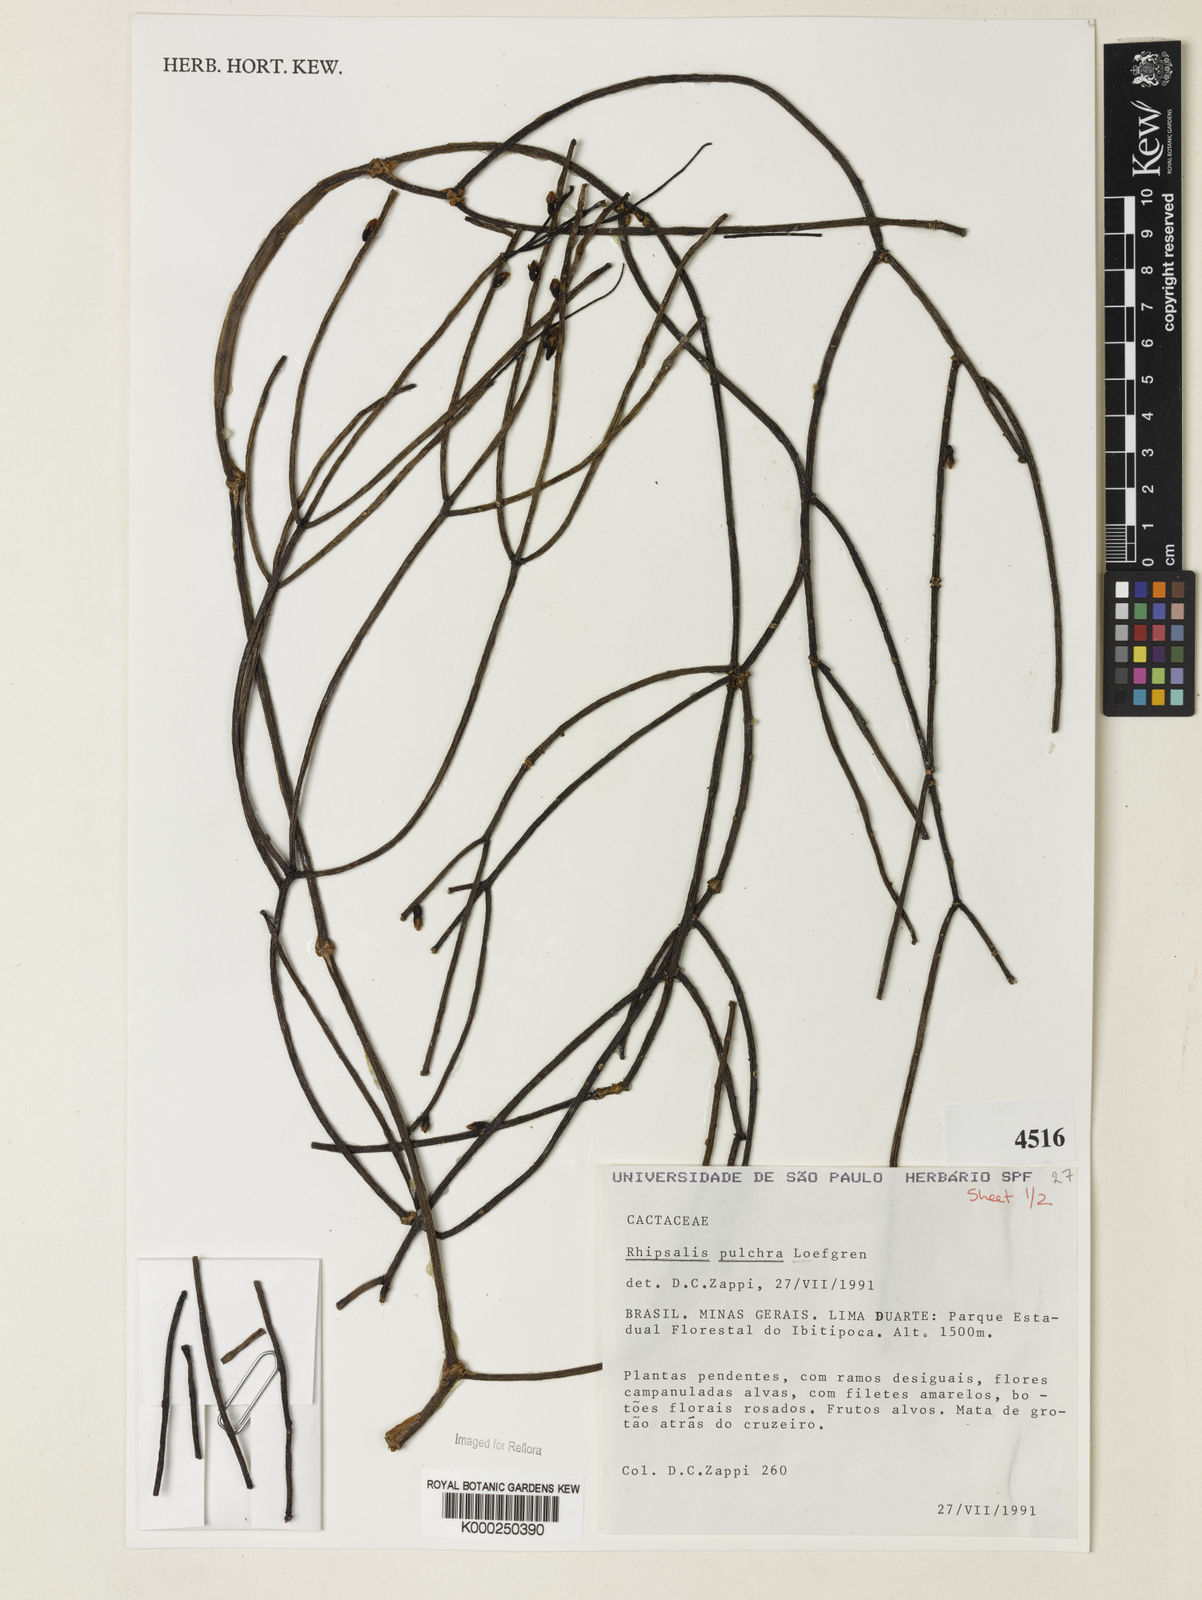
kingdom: Plantae
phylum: Tracheophyta
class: Magnoliopsida
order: Caryophyllales
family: Cactaceae
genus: Rhipsalis
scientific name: Rhipsalis
